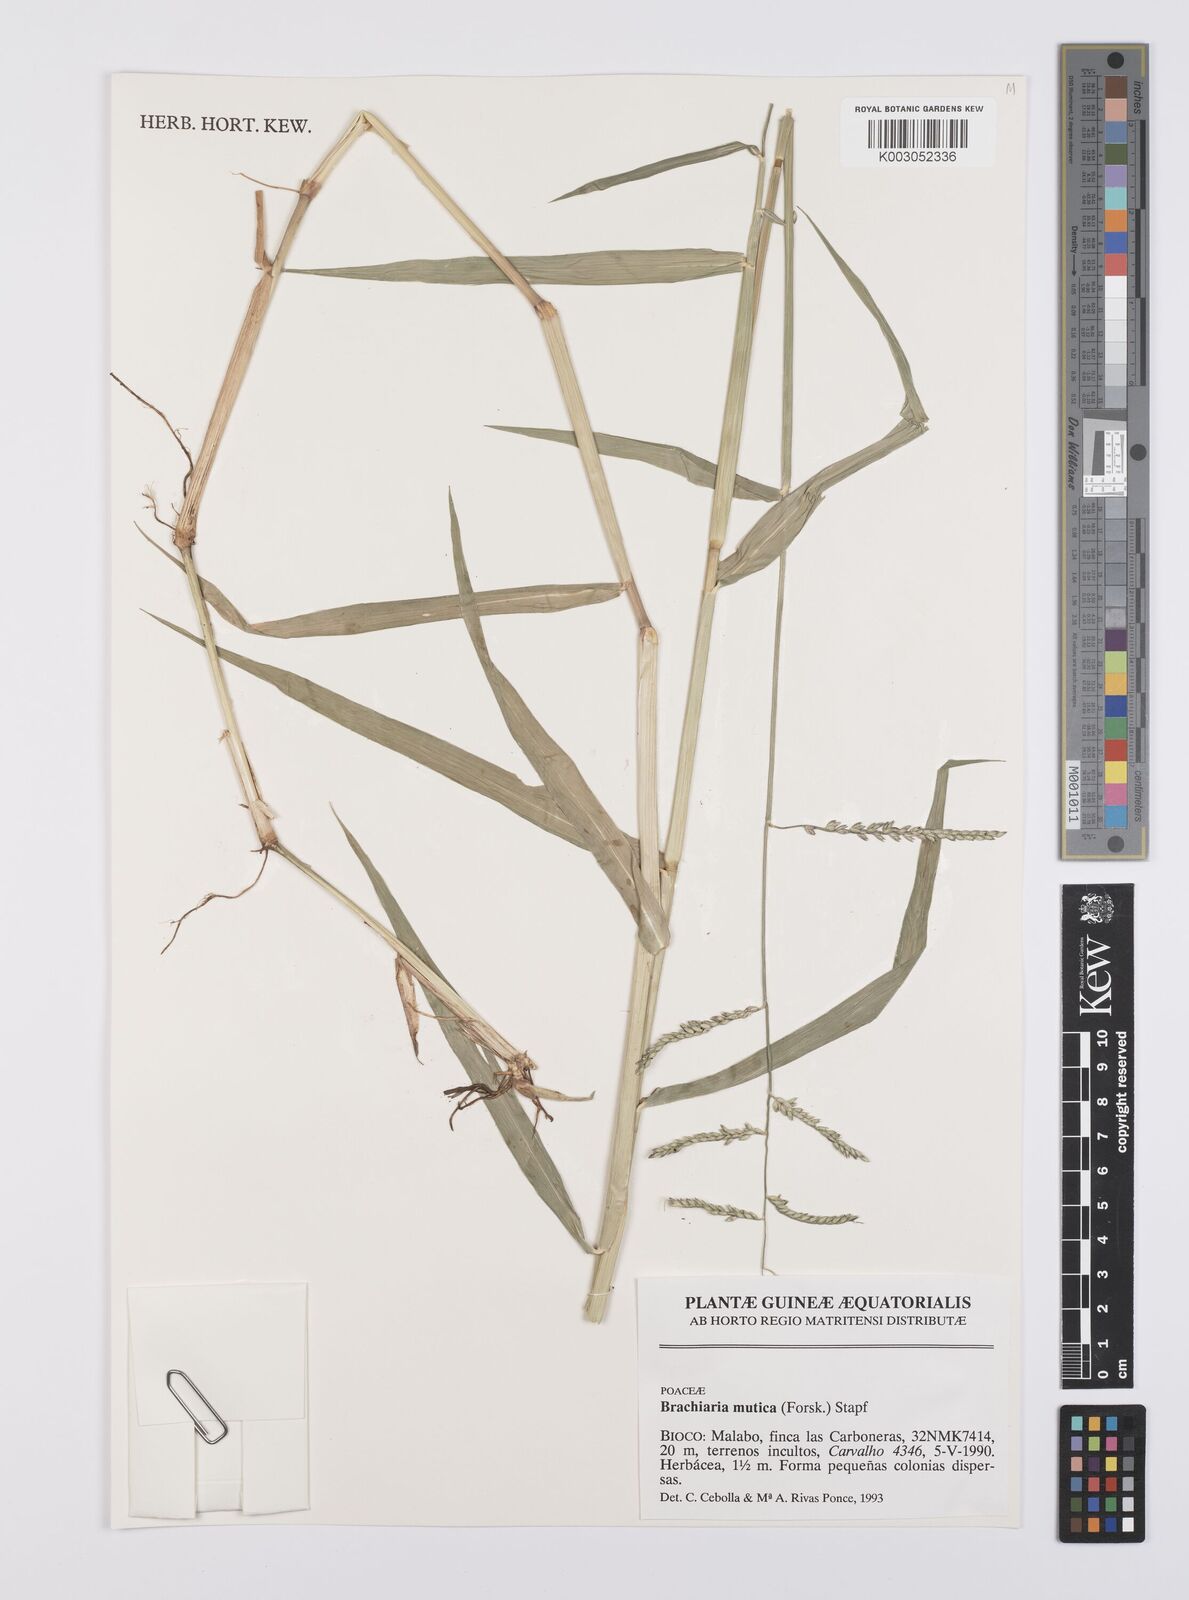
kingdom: Plantae
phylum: Tracheophyta
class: Liliopsida
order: Poales
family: Poaceae
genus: Urochloa
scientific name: Urochloa mutica
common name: Para grass
